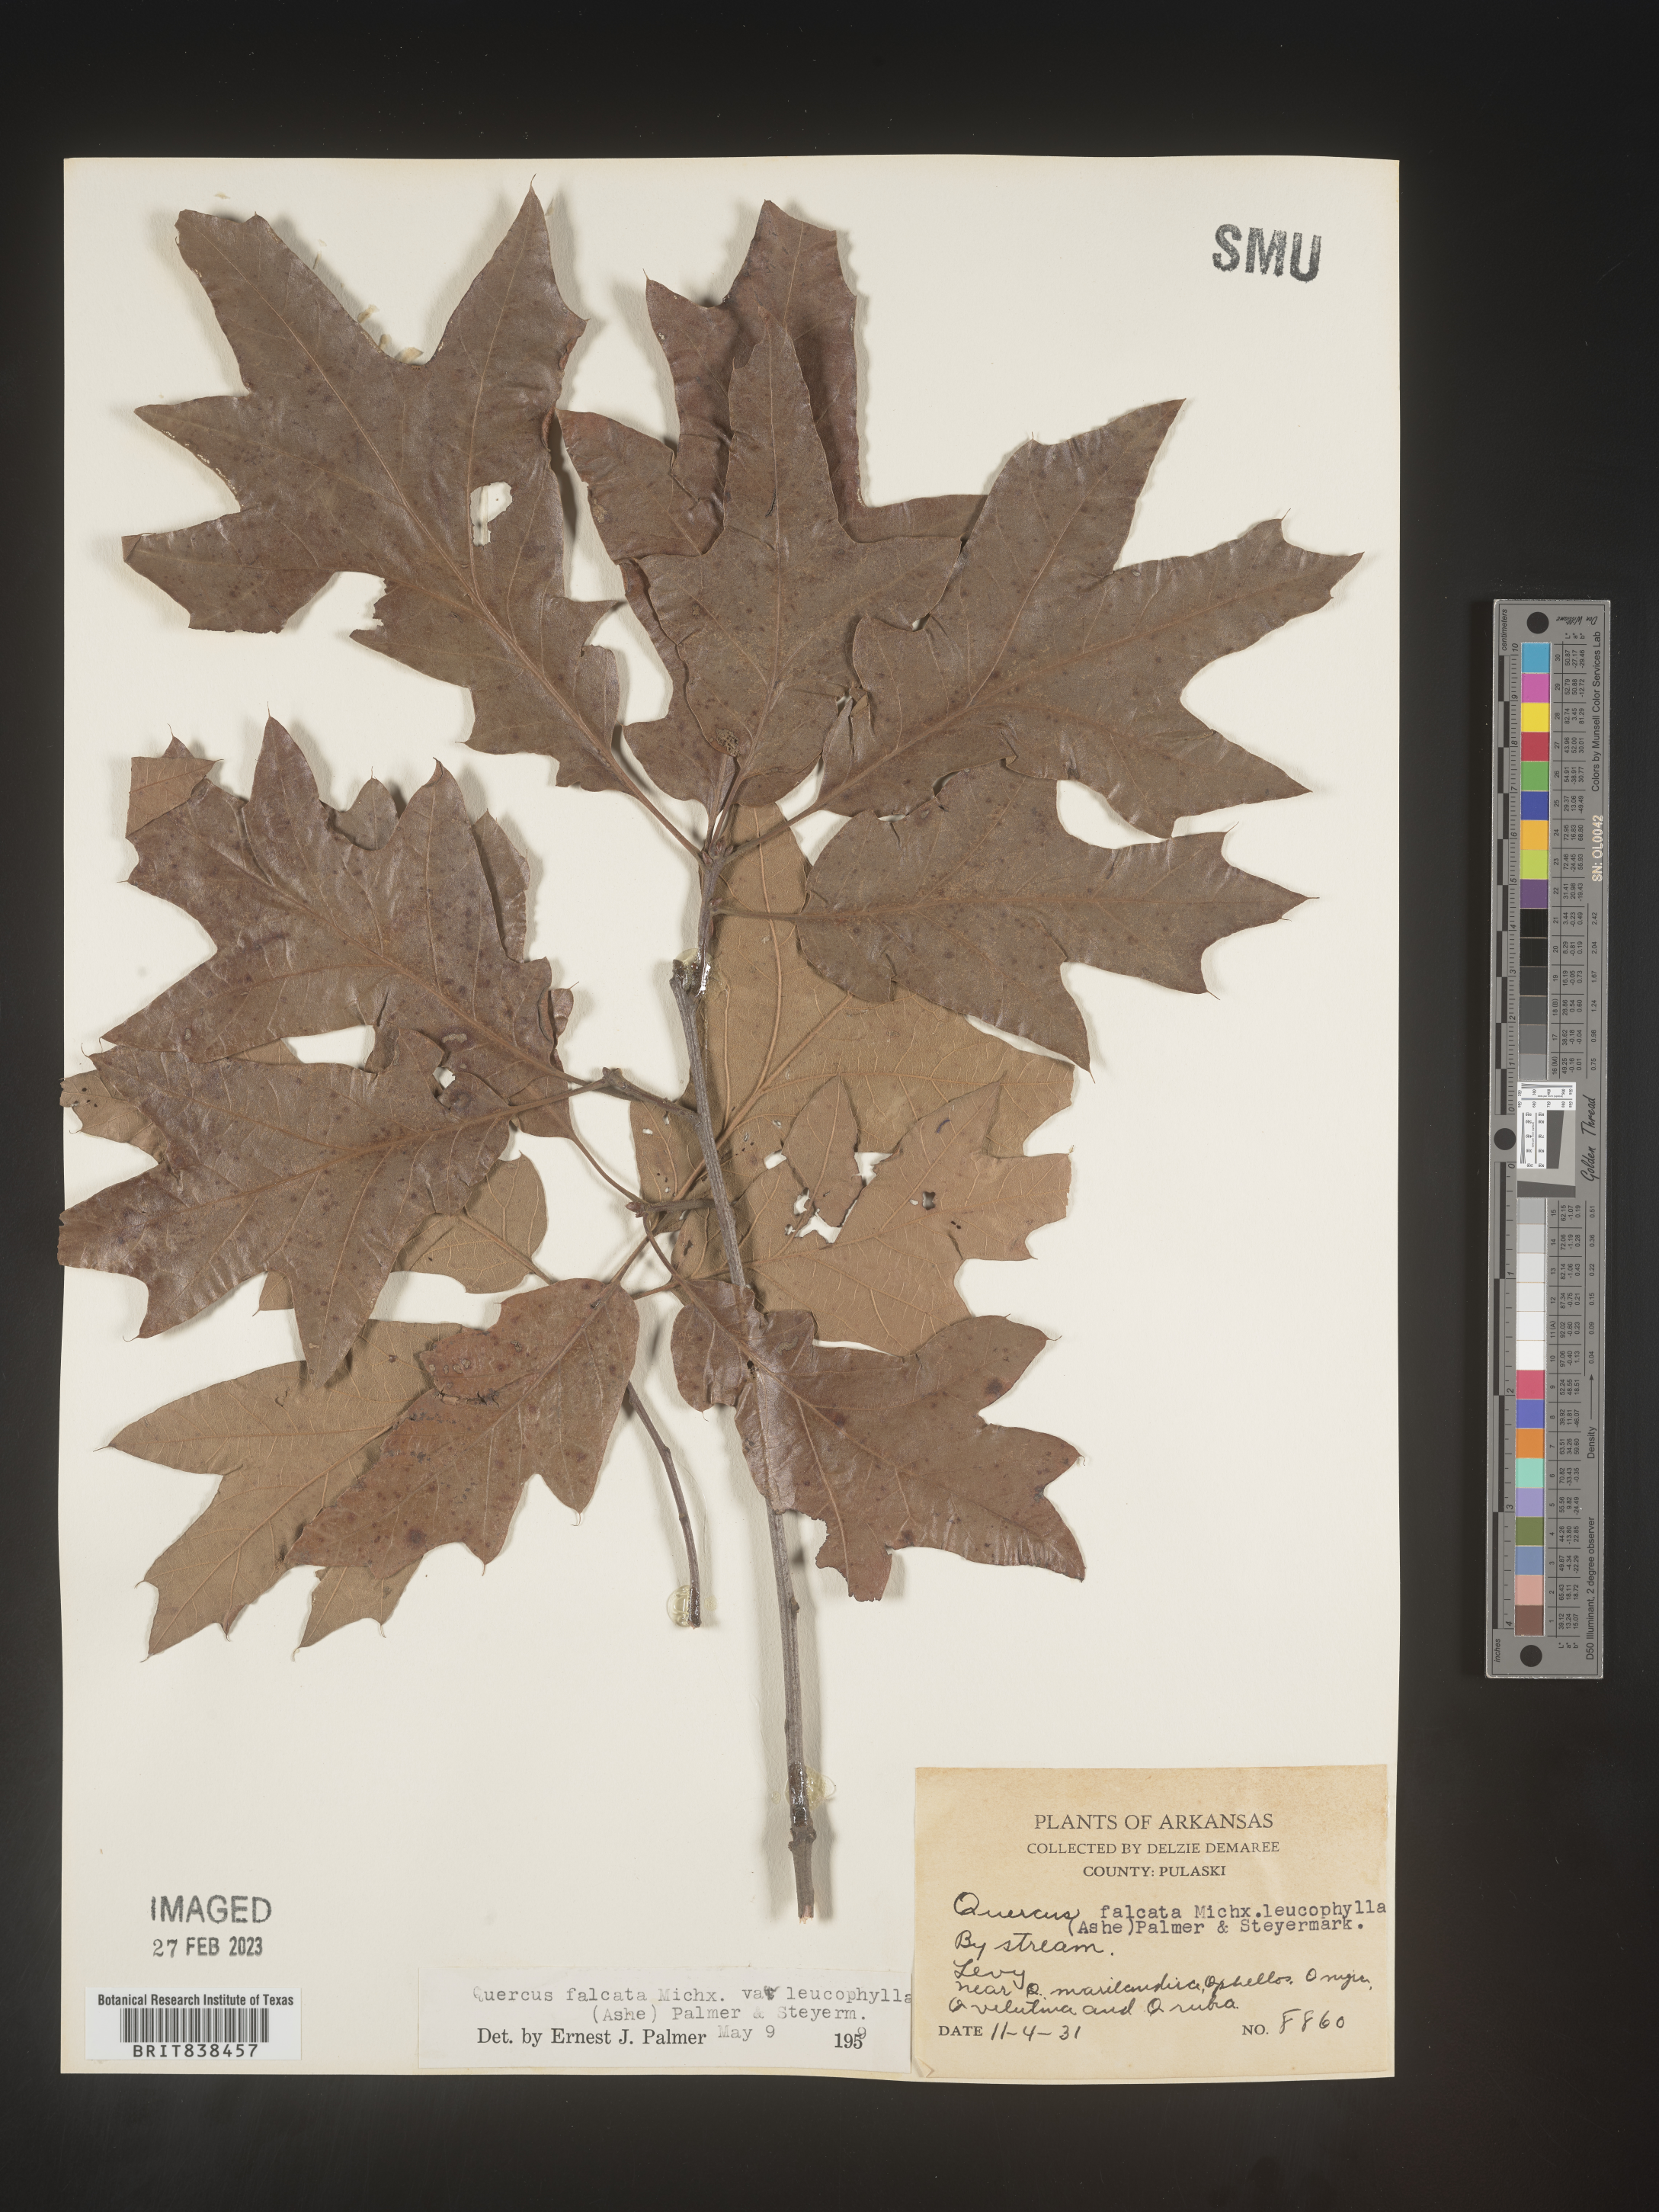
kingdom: Plantae
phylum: Tracheophyta
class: Magnoliopsida
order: Fagales
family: Fagaceae
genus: Quercus
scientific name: Quercus falcata
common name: Southern red oak
